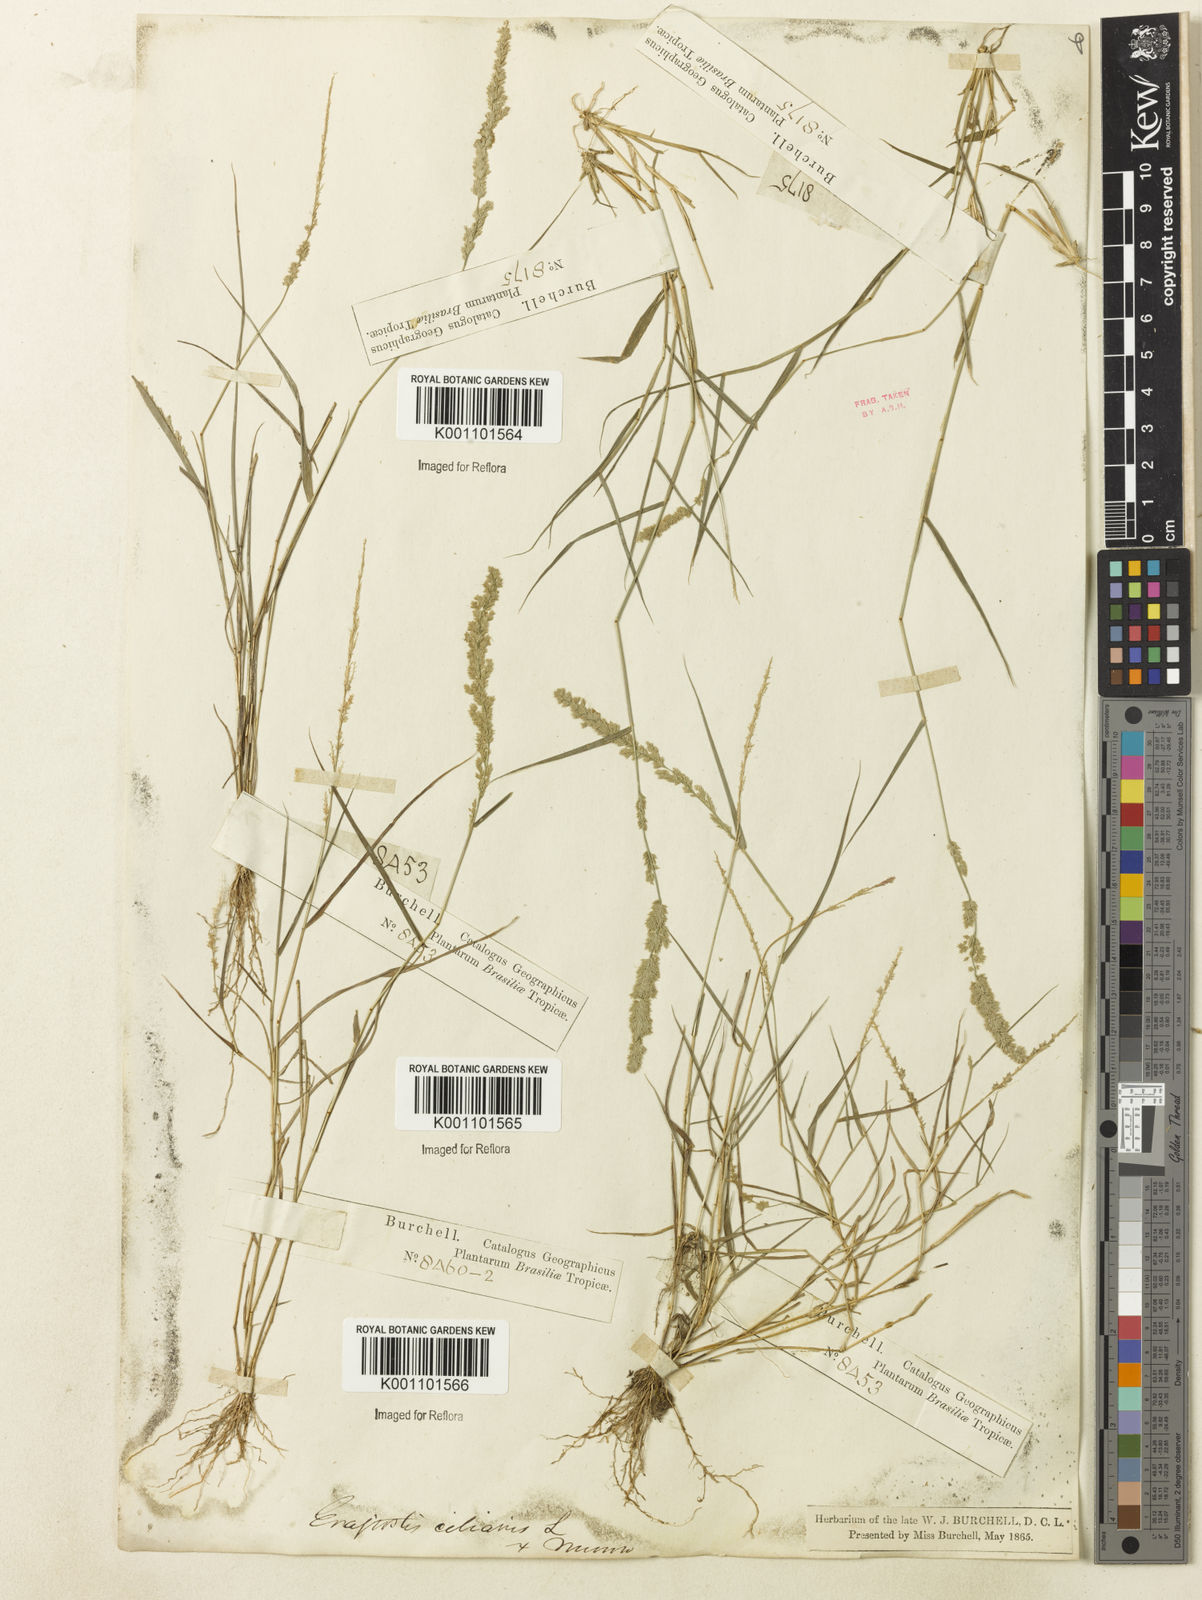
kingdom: Plantae
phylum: Tracheophyta
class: Liliopsida
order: Poales
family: Poaceae
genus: Eragrostis
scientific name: Eragrostis ciliaris
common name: Gophertail lovegrass
